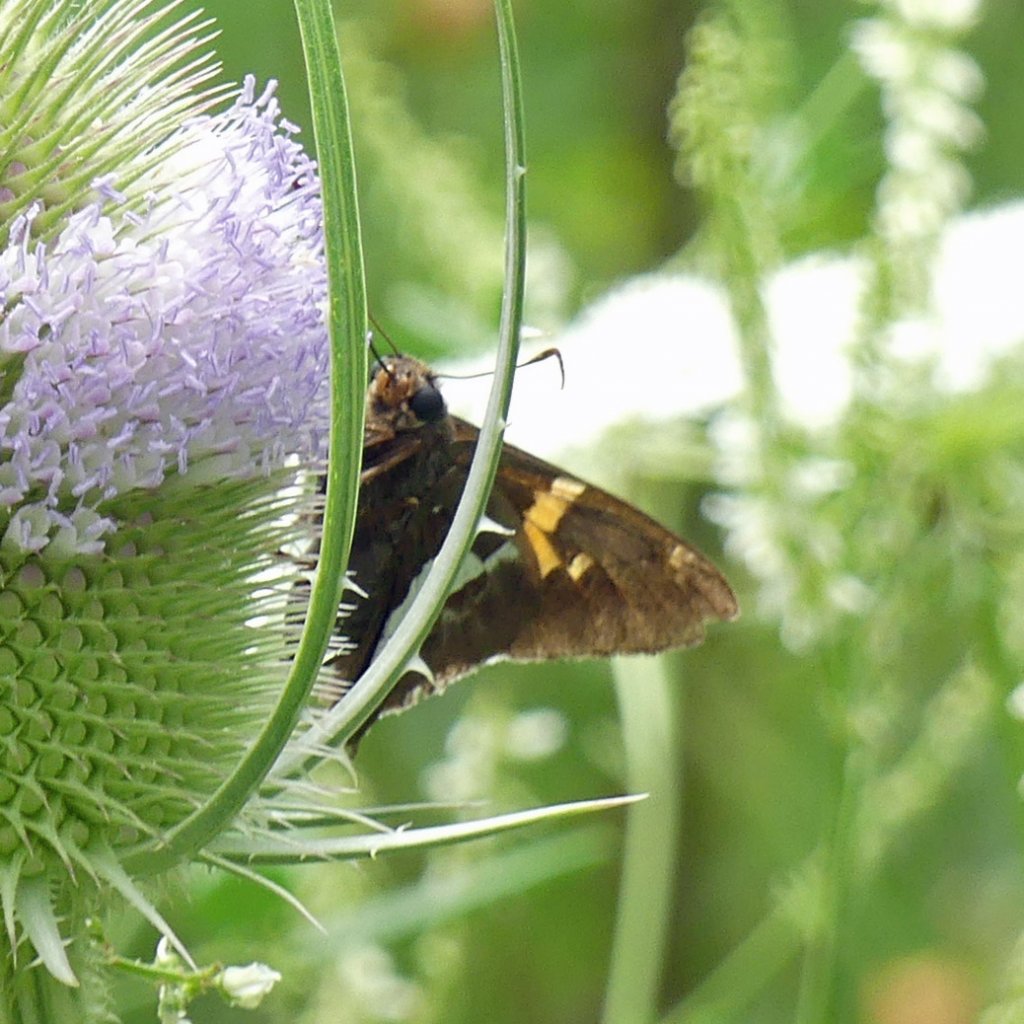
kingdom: Animalia
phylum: Arthropoda
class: Insecta
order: Lepidoptera
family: Hesperiidae
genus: Epargyreus
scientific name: Epargyreus clarus
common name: Silver-spotted Skipper
